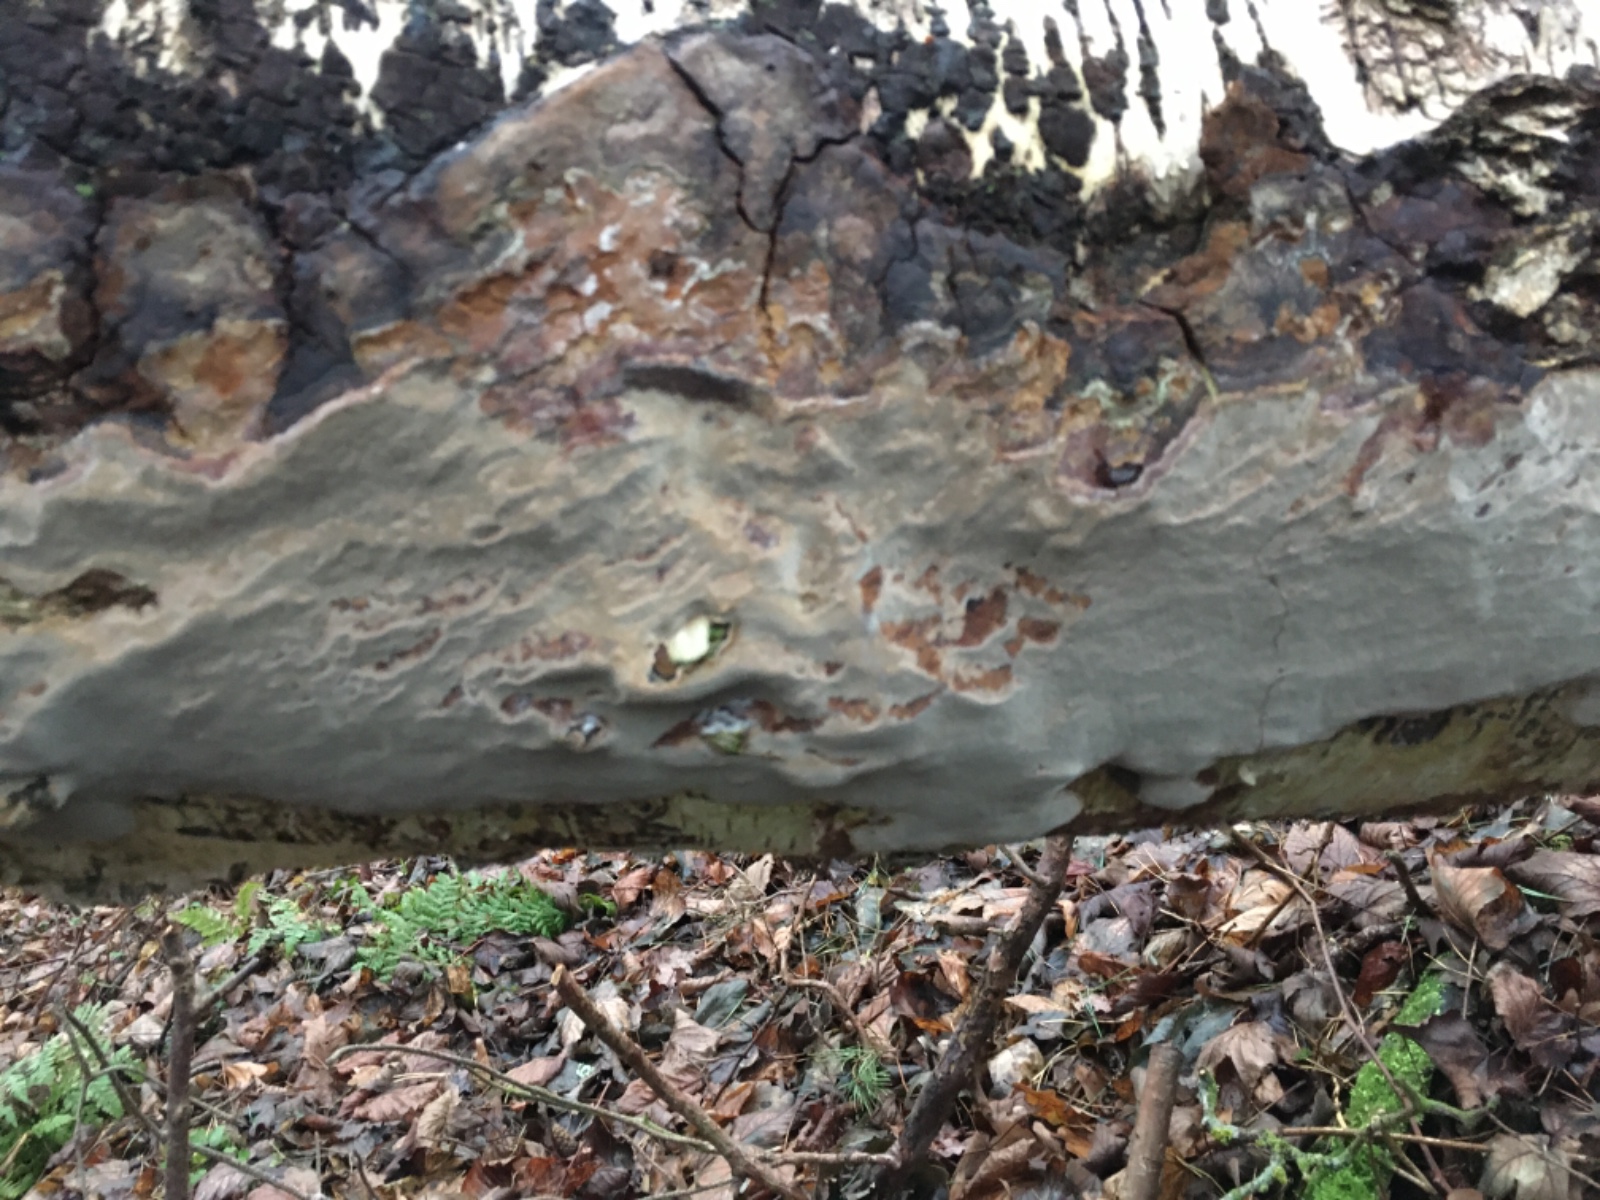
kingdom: Fungi
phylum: Basidiomycota
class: Agaricomycetes
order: Hymenochaetales
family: Hymenochaetaceae
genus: Phellinus
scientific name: Phellinus laevigatus
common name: glat ildporesvamp
